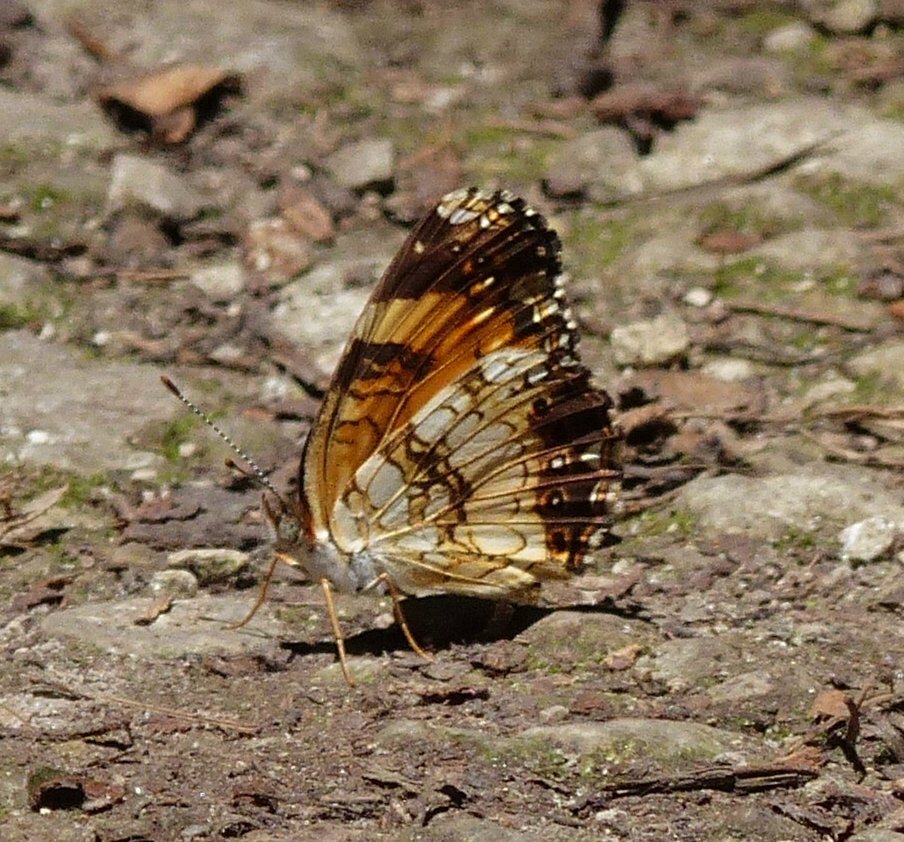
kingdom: Animalia
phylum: Arthropoda
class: Insecta
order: Lepidoptera
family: Nymphalidae
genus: Chlosyne
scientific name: Chlosyne nycteis
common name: Silvery Checkerspot
